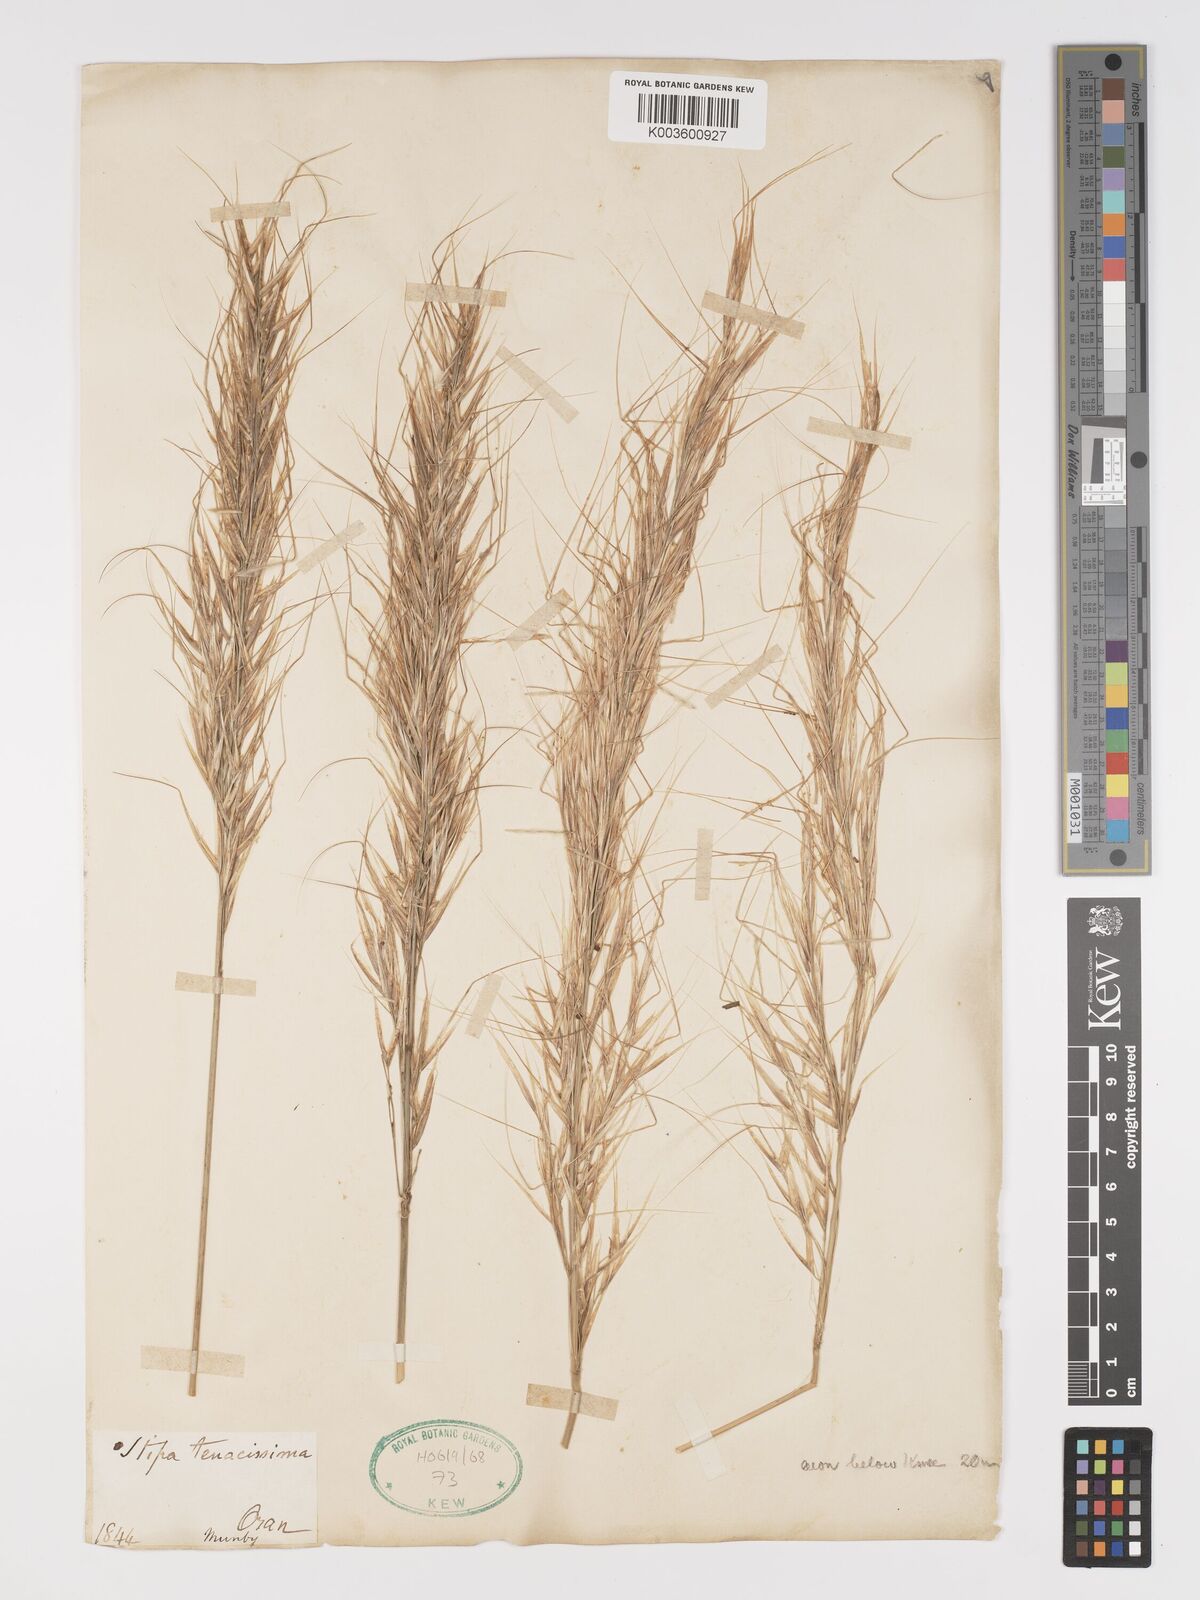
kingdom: Plantae
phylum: Tracheophyta
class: Liliopsida
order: Poales
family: Poaceae
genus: Macrochloa
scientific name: Macrochloa tenacissima
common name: Alfa grass
